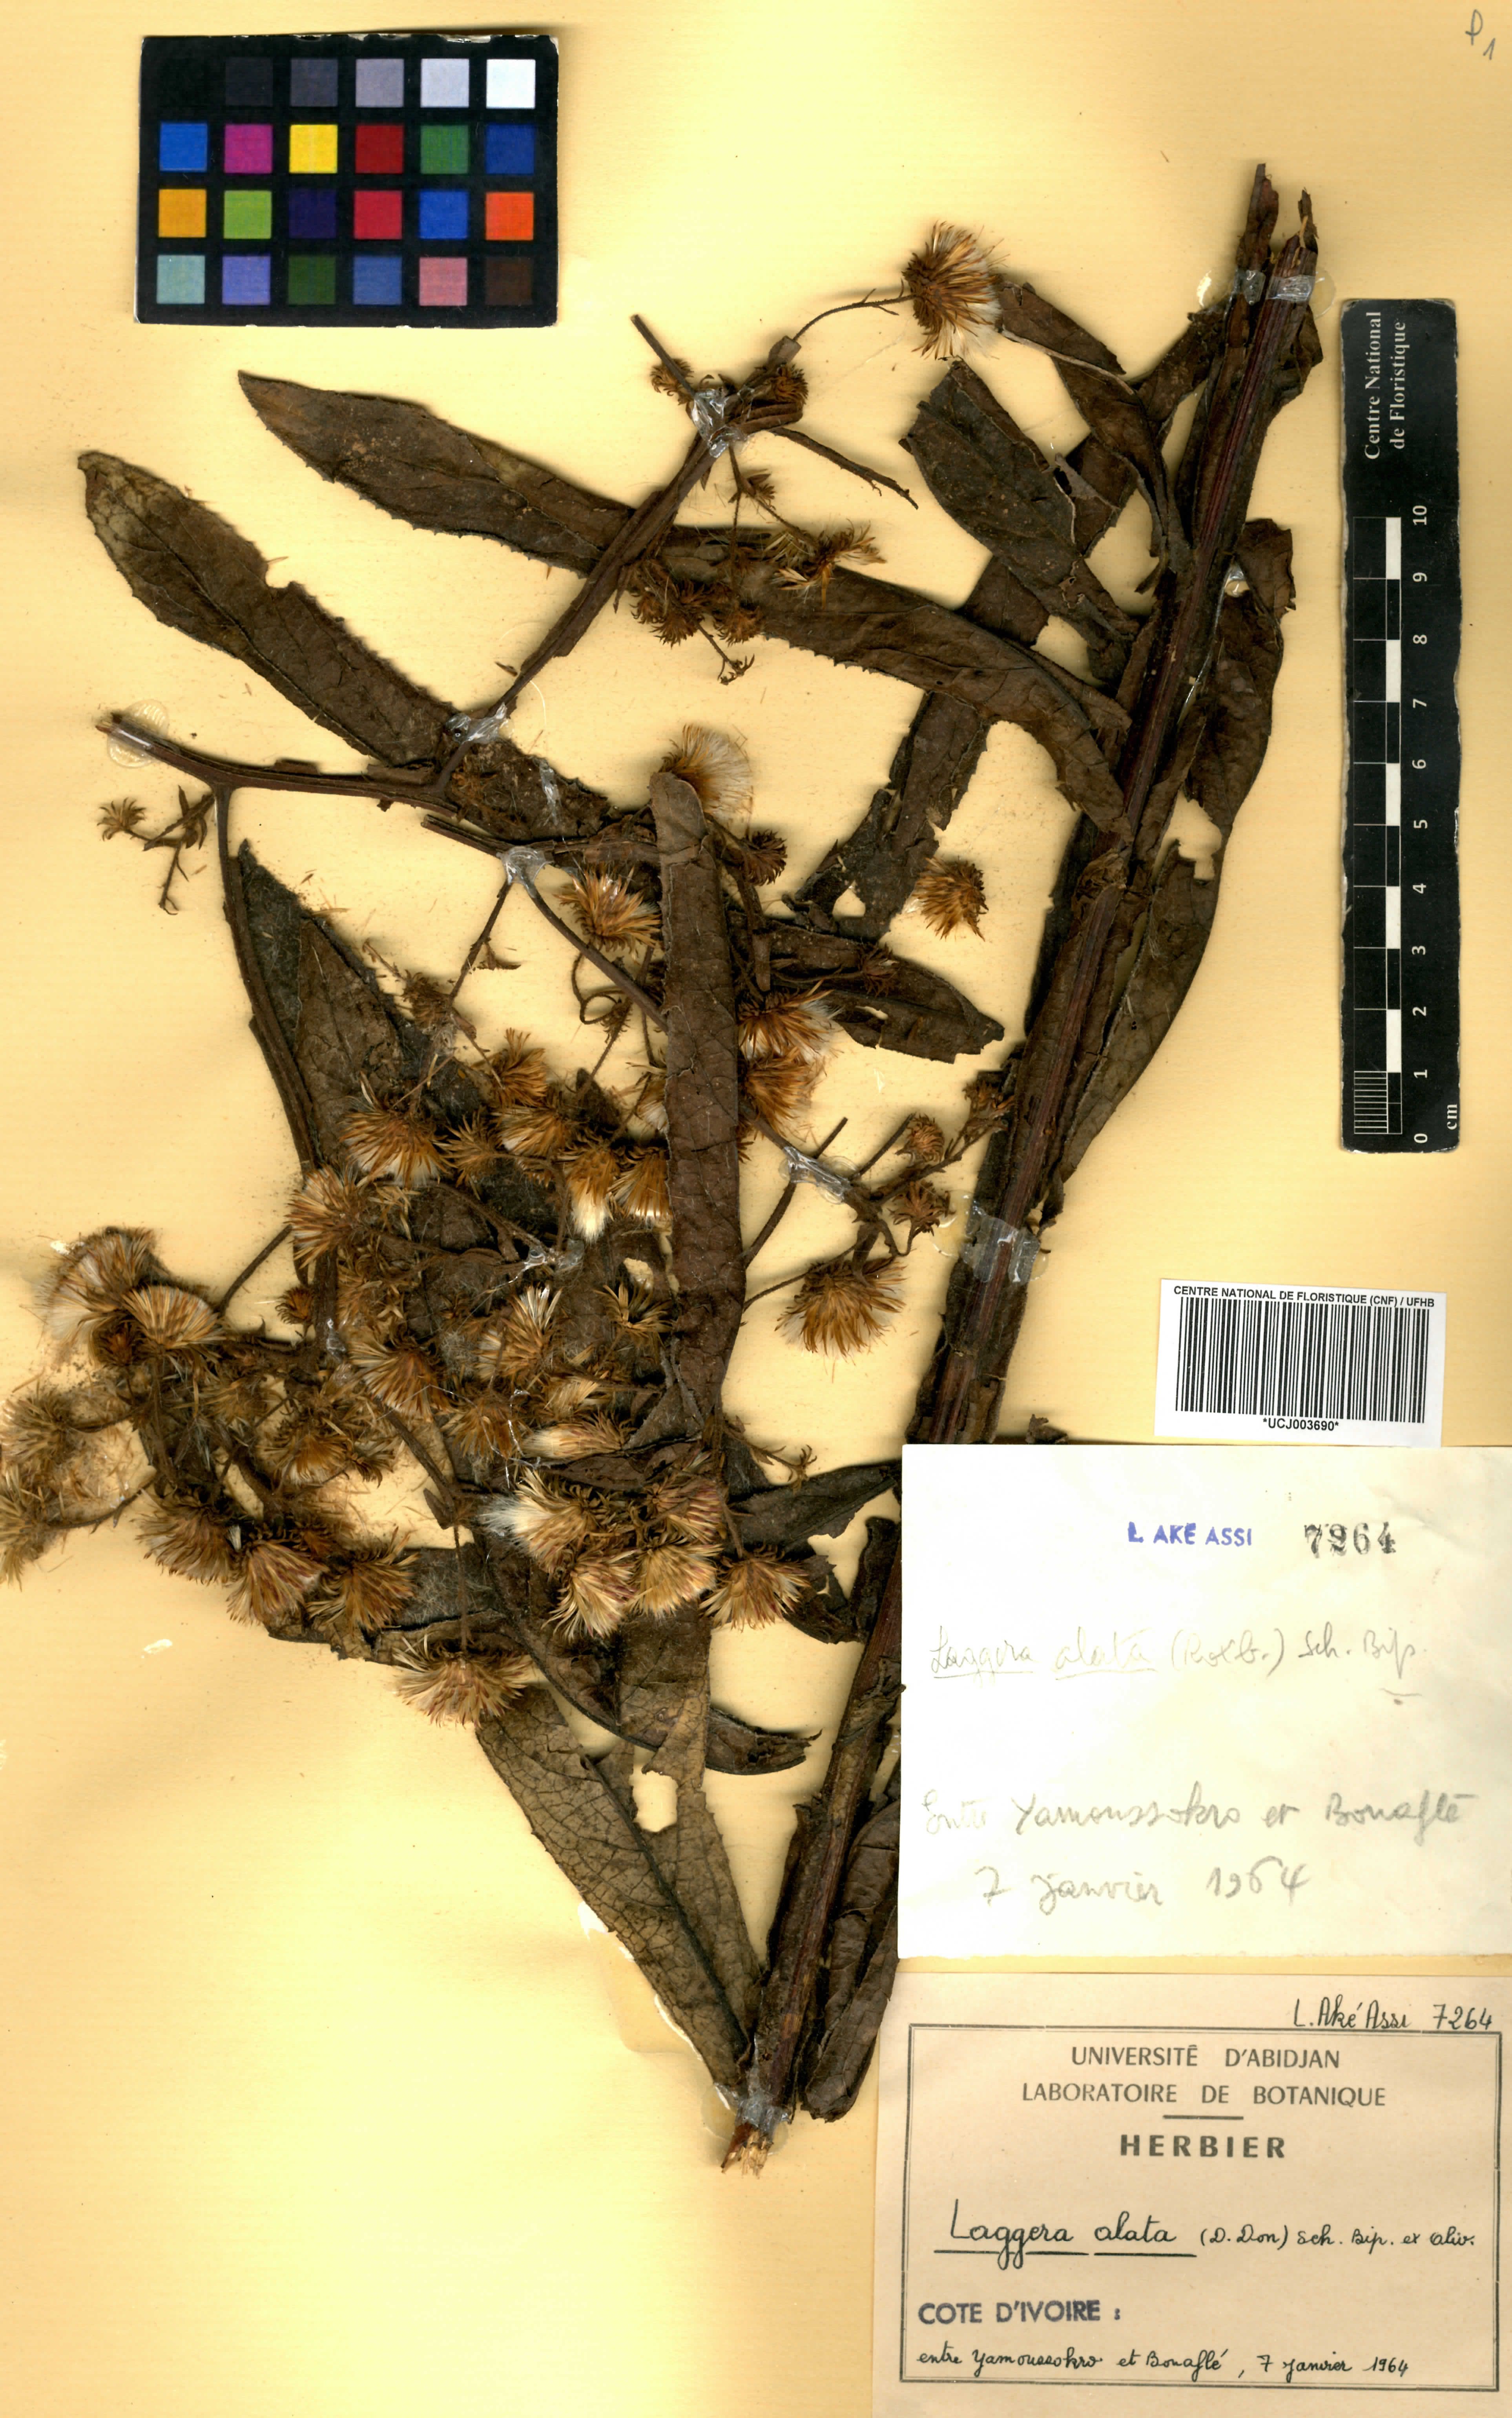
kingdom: Plantae
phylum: Tracheophyta
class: Magnoliopsida
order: Asterales
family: Asteraceae
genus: Laggera
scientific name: Laggera alata
